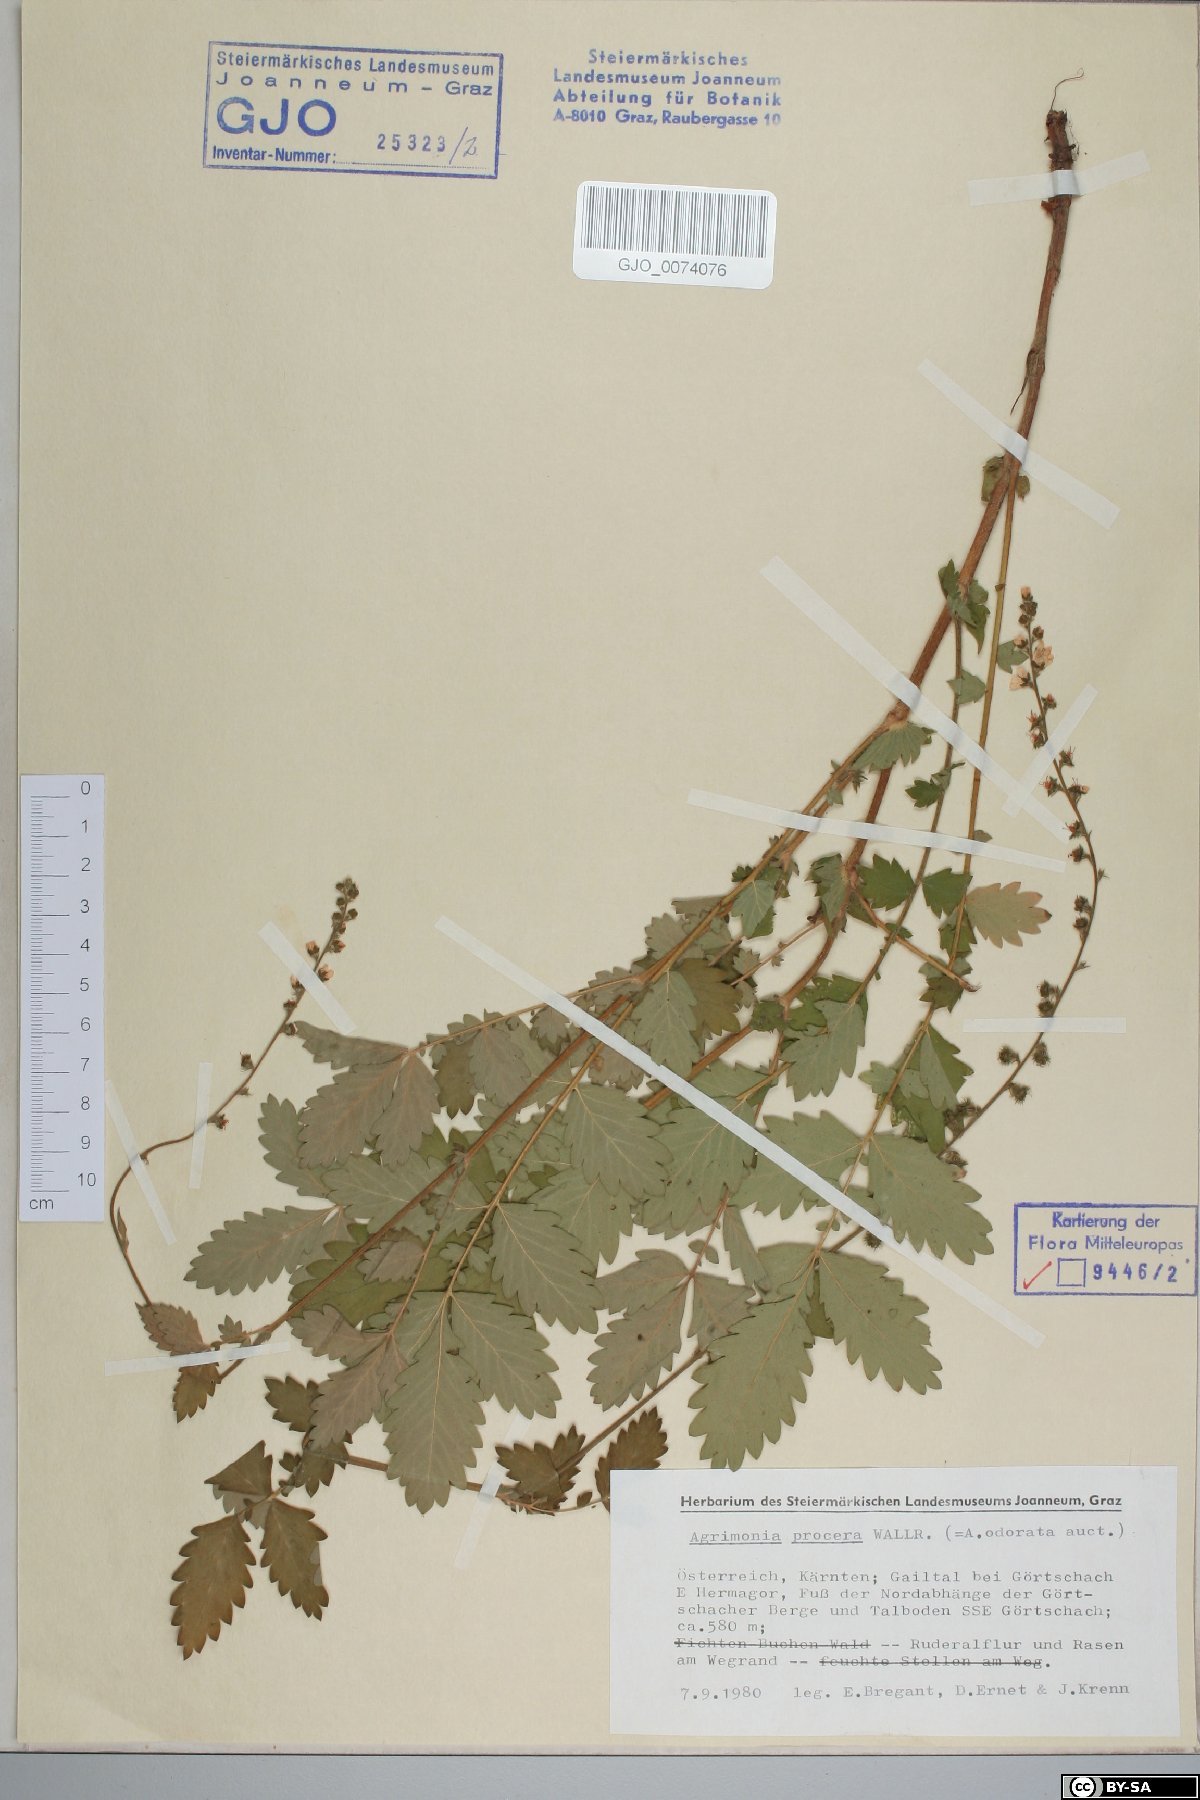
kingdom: Plantae
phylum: Tracheophyta
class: Magnoliopsida
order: Rosales
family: Rosaceae
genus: Agrimonia
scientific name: Agrimonia procera
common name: Fragrant agrimony
